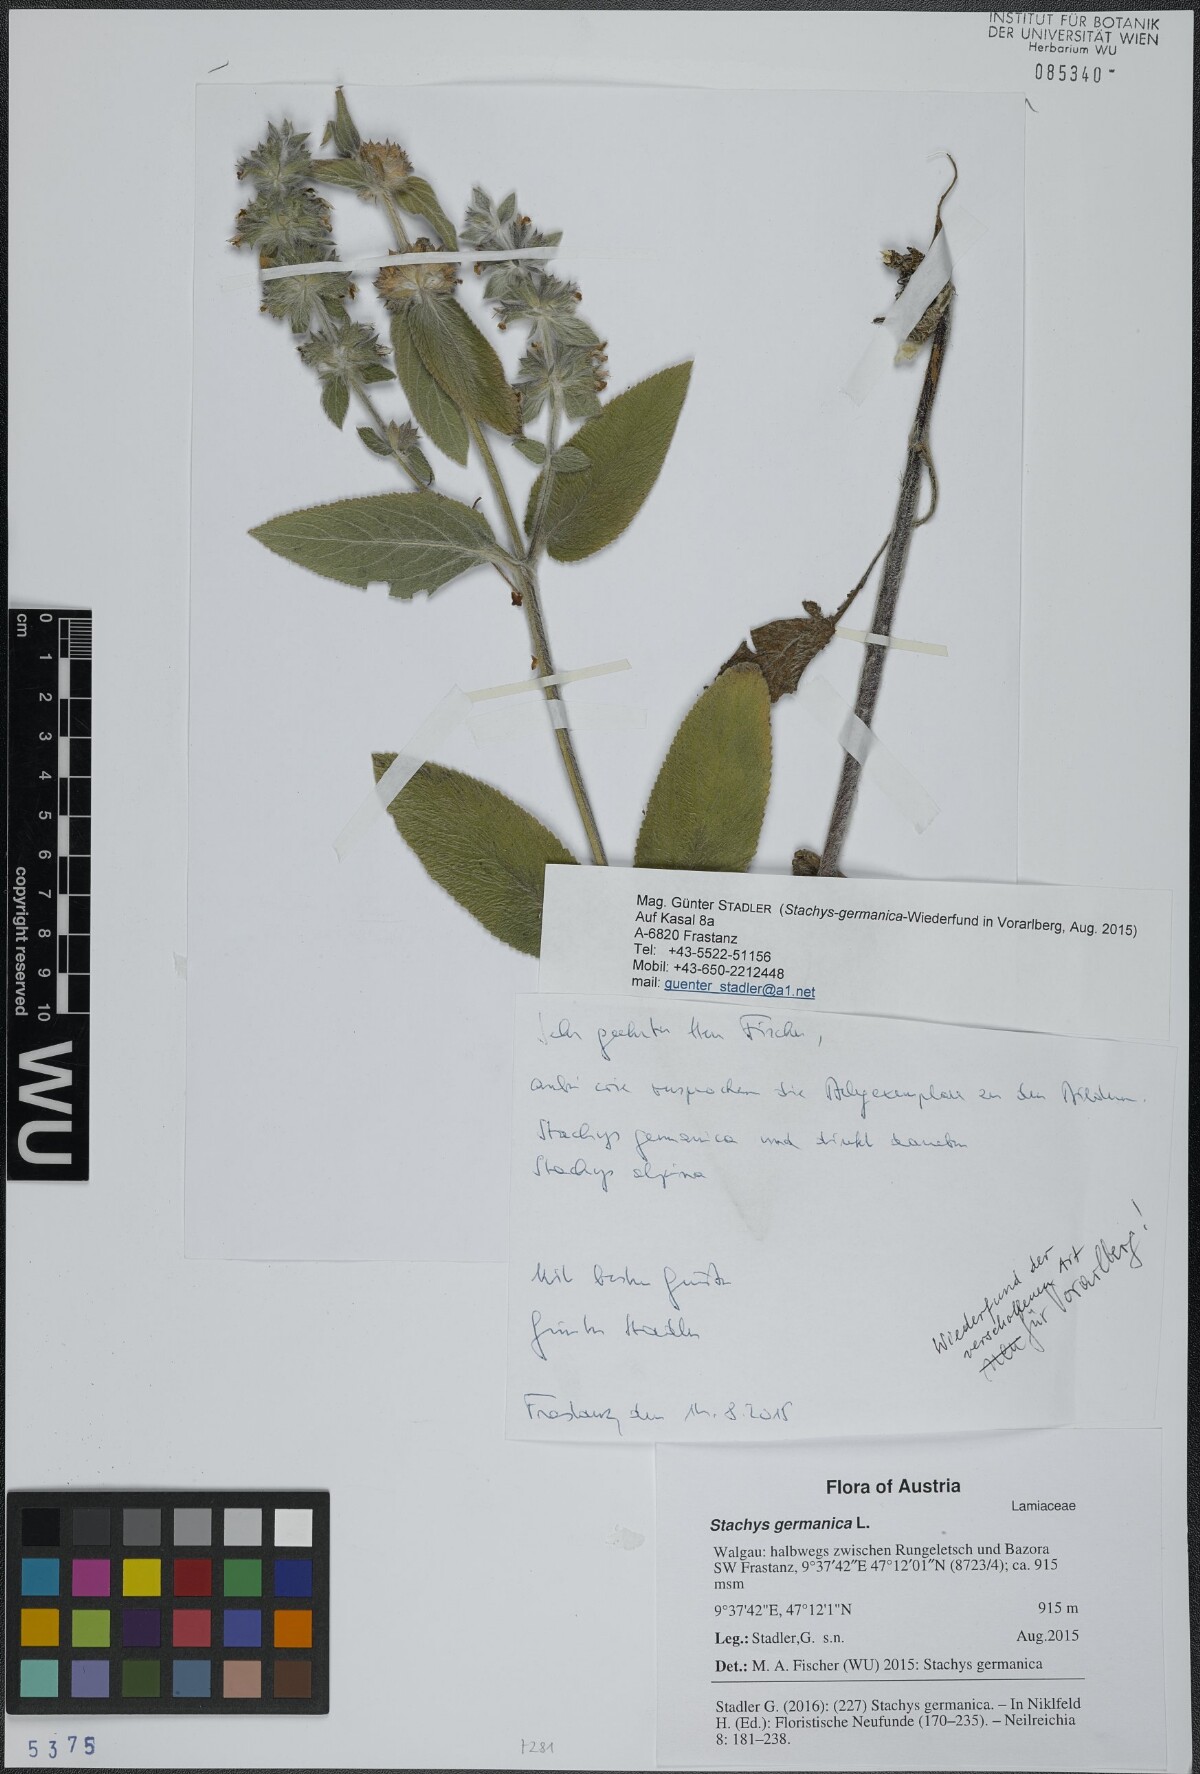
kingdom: Plantae
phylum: Tracheophyta
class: Magnoliopsida
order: Lamiales
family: Lamiaceae
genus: Stachys
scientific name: Stachys germanica
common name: Downy woundwort
